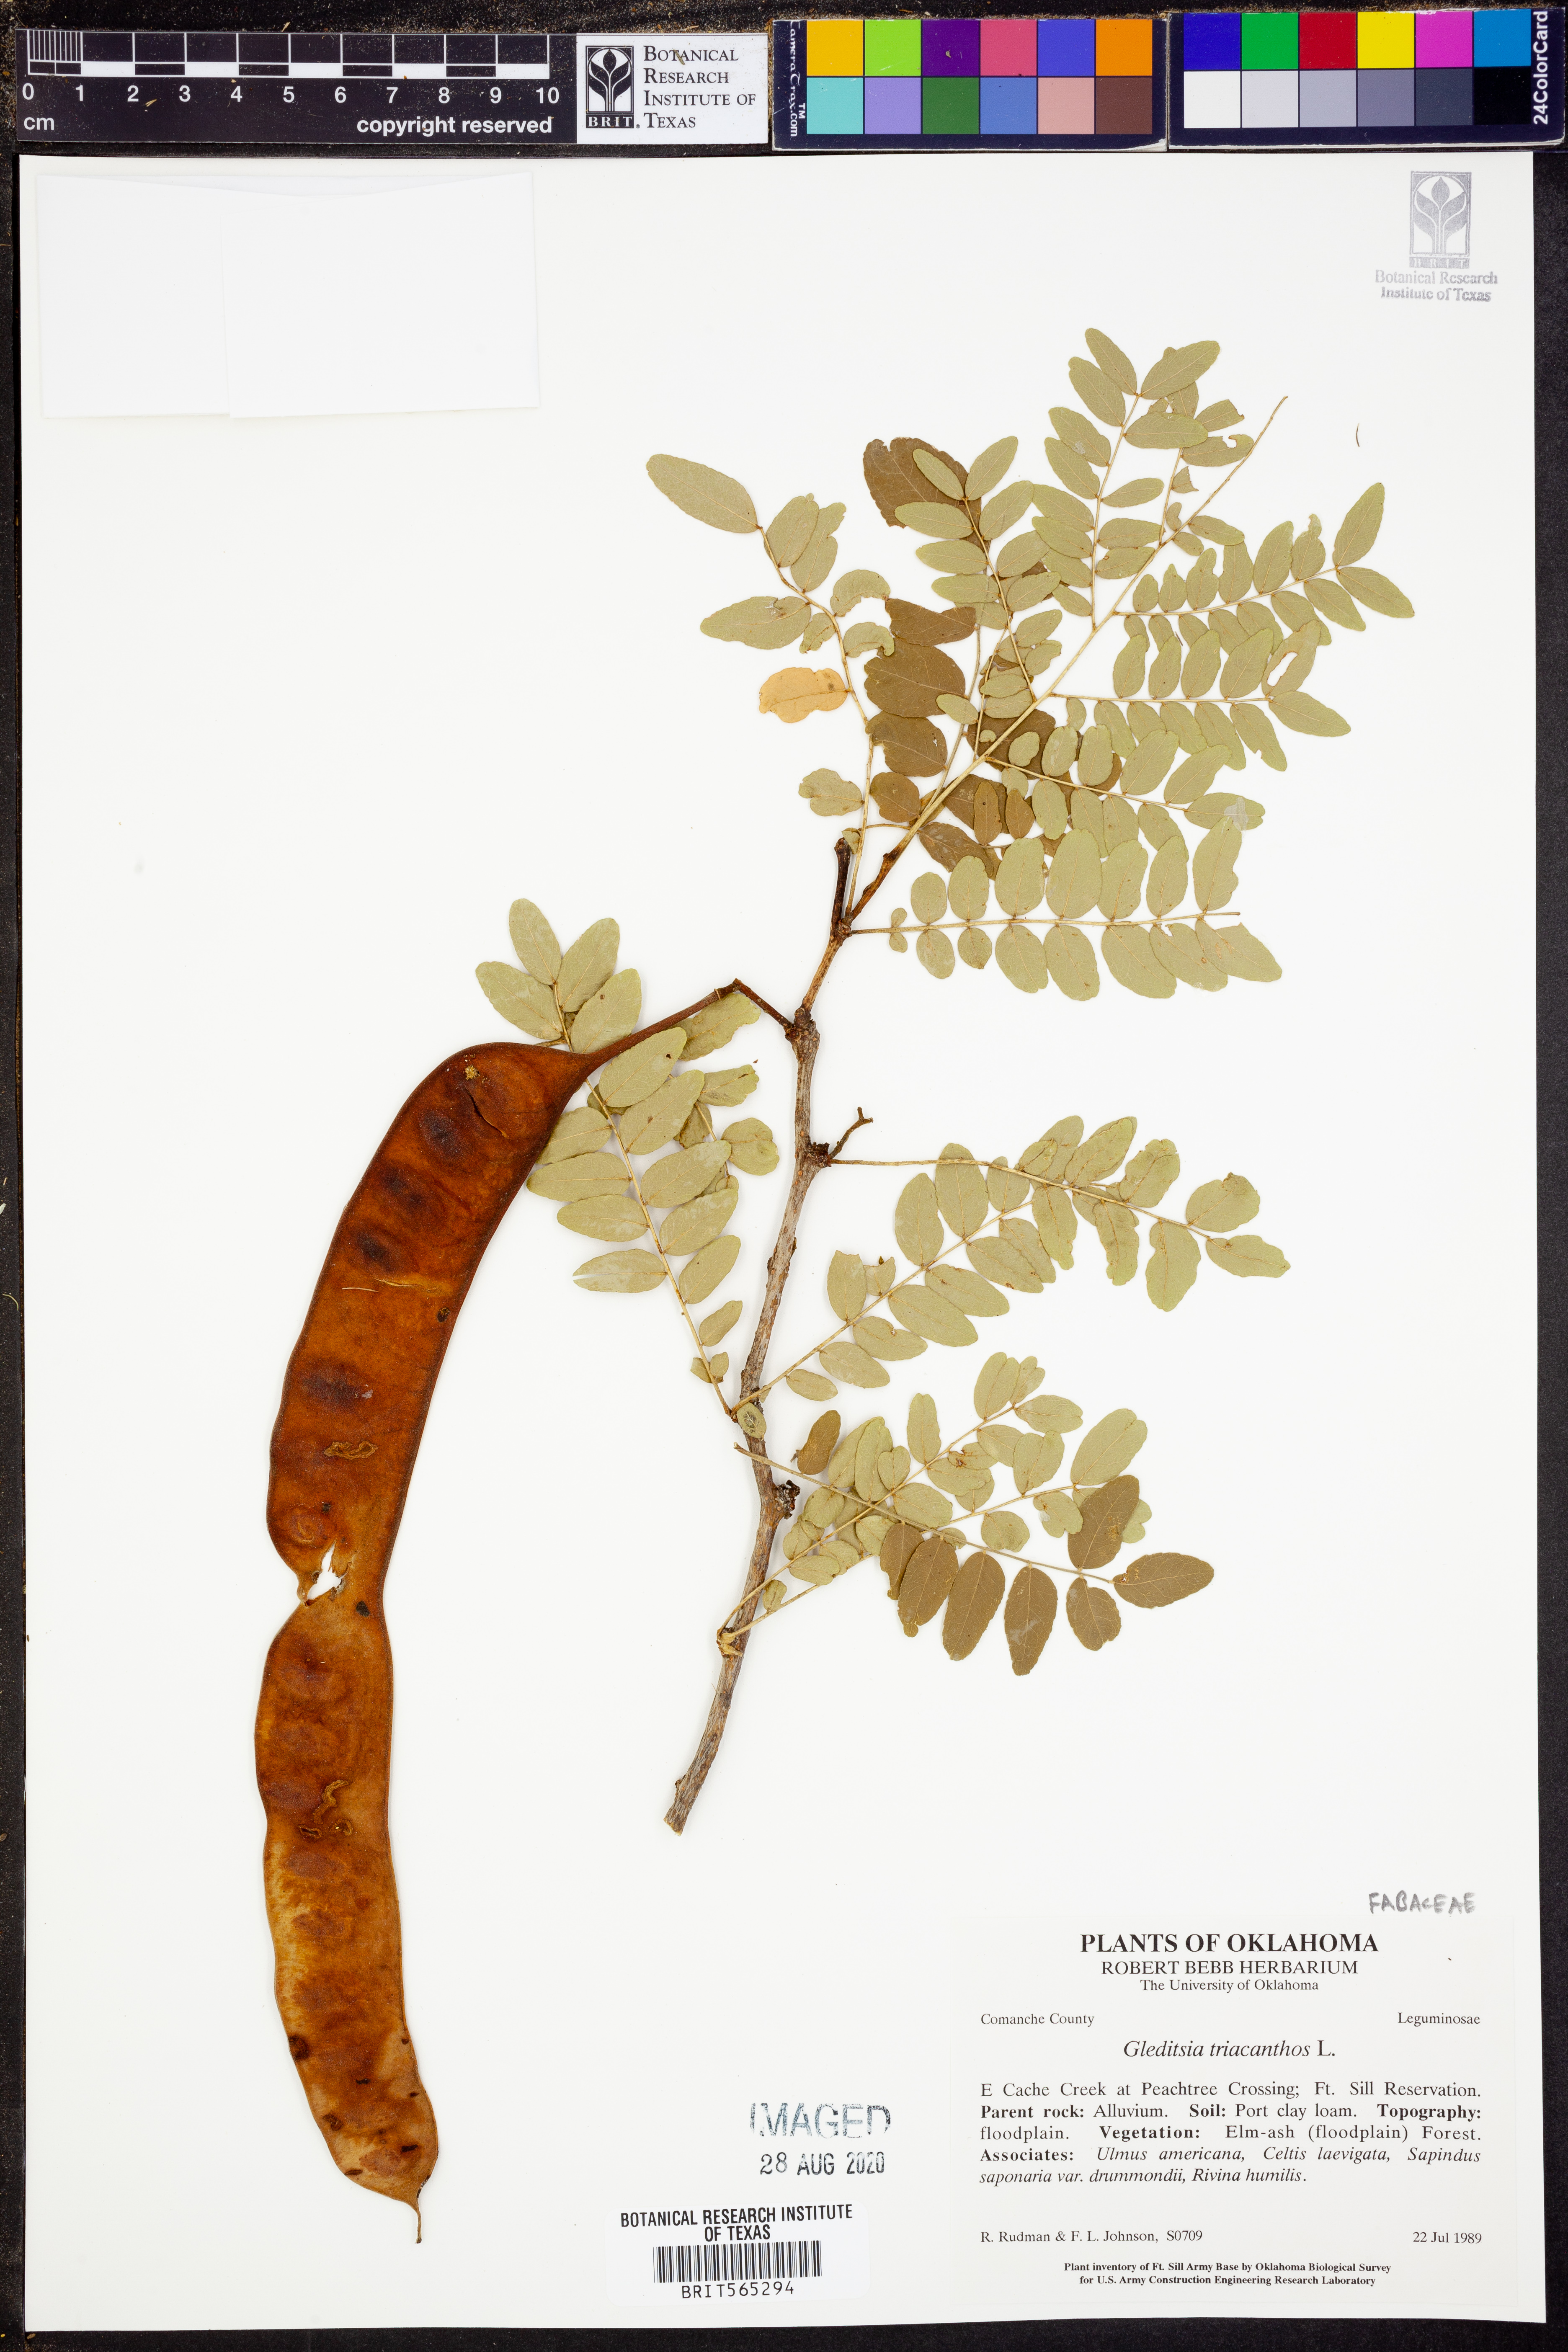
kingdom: Plantae
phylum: Tracheophyta
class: Magnoliopsida
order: Fabales
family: Fabaceae
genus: Gleditsia
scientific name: Gleditsia triacanthos
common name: Common honeylocust
